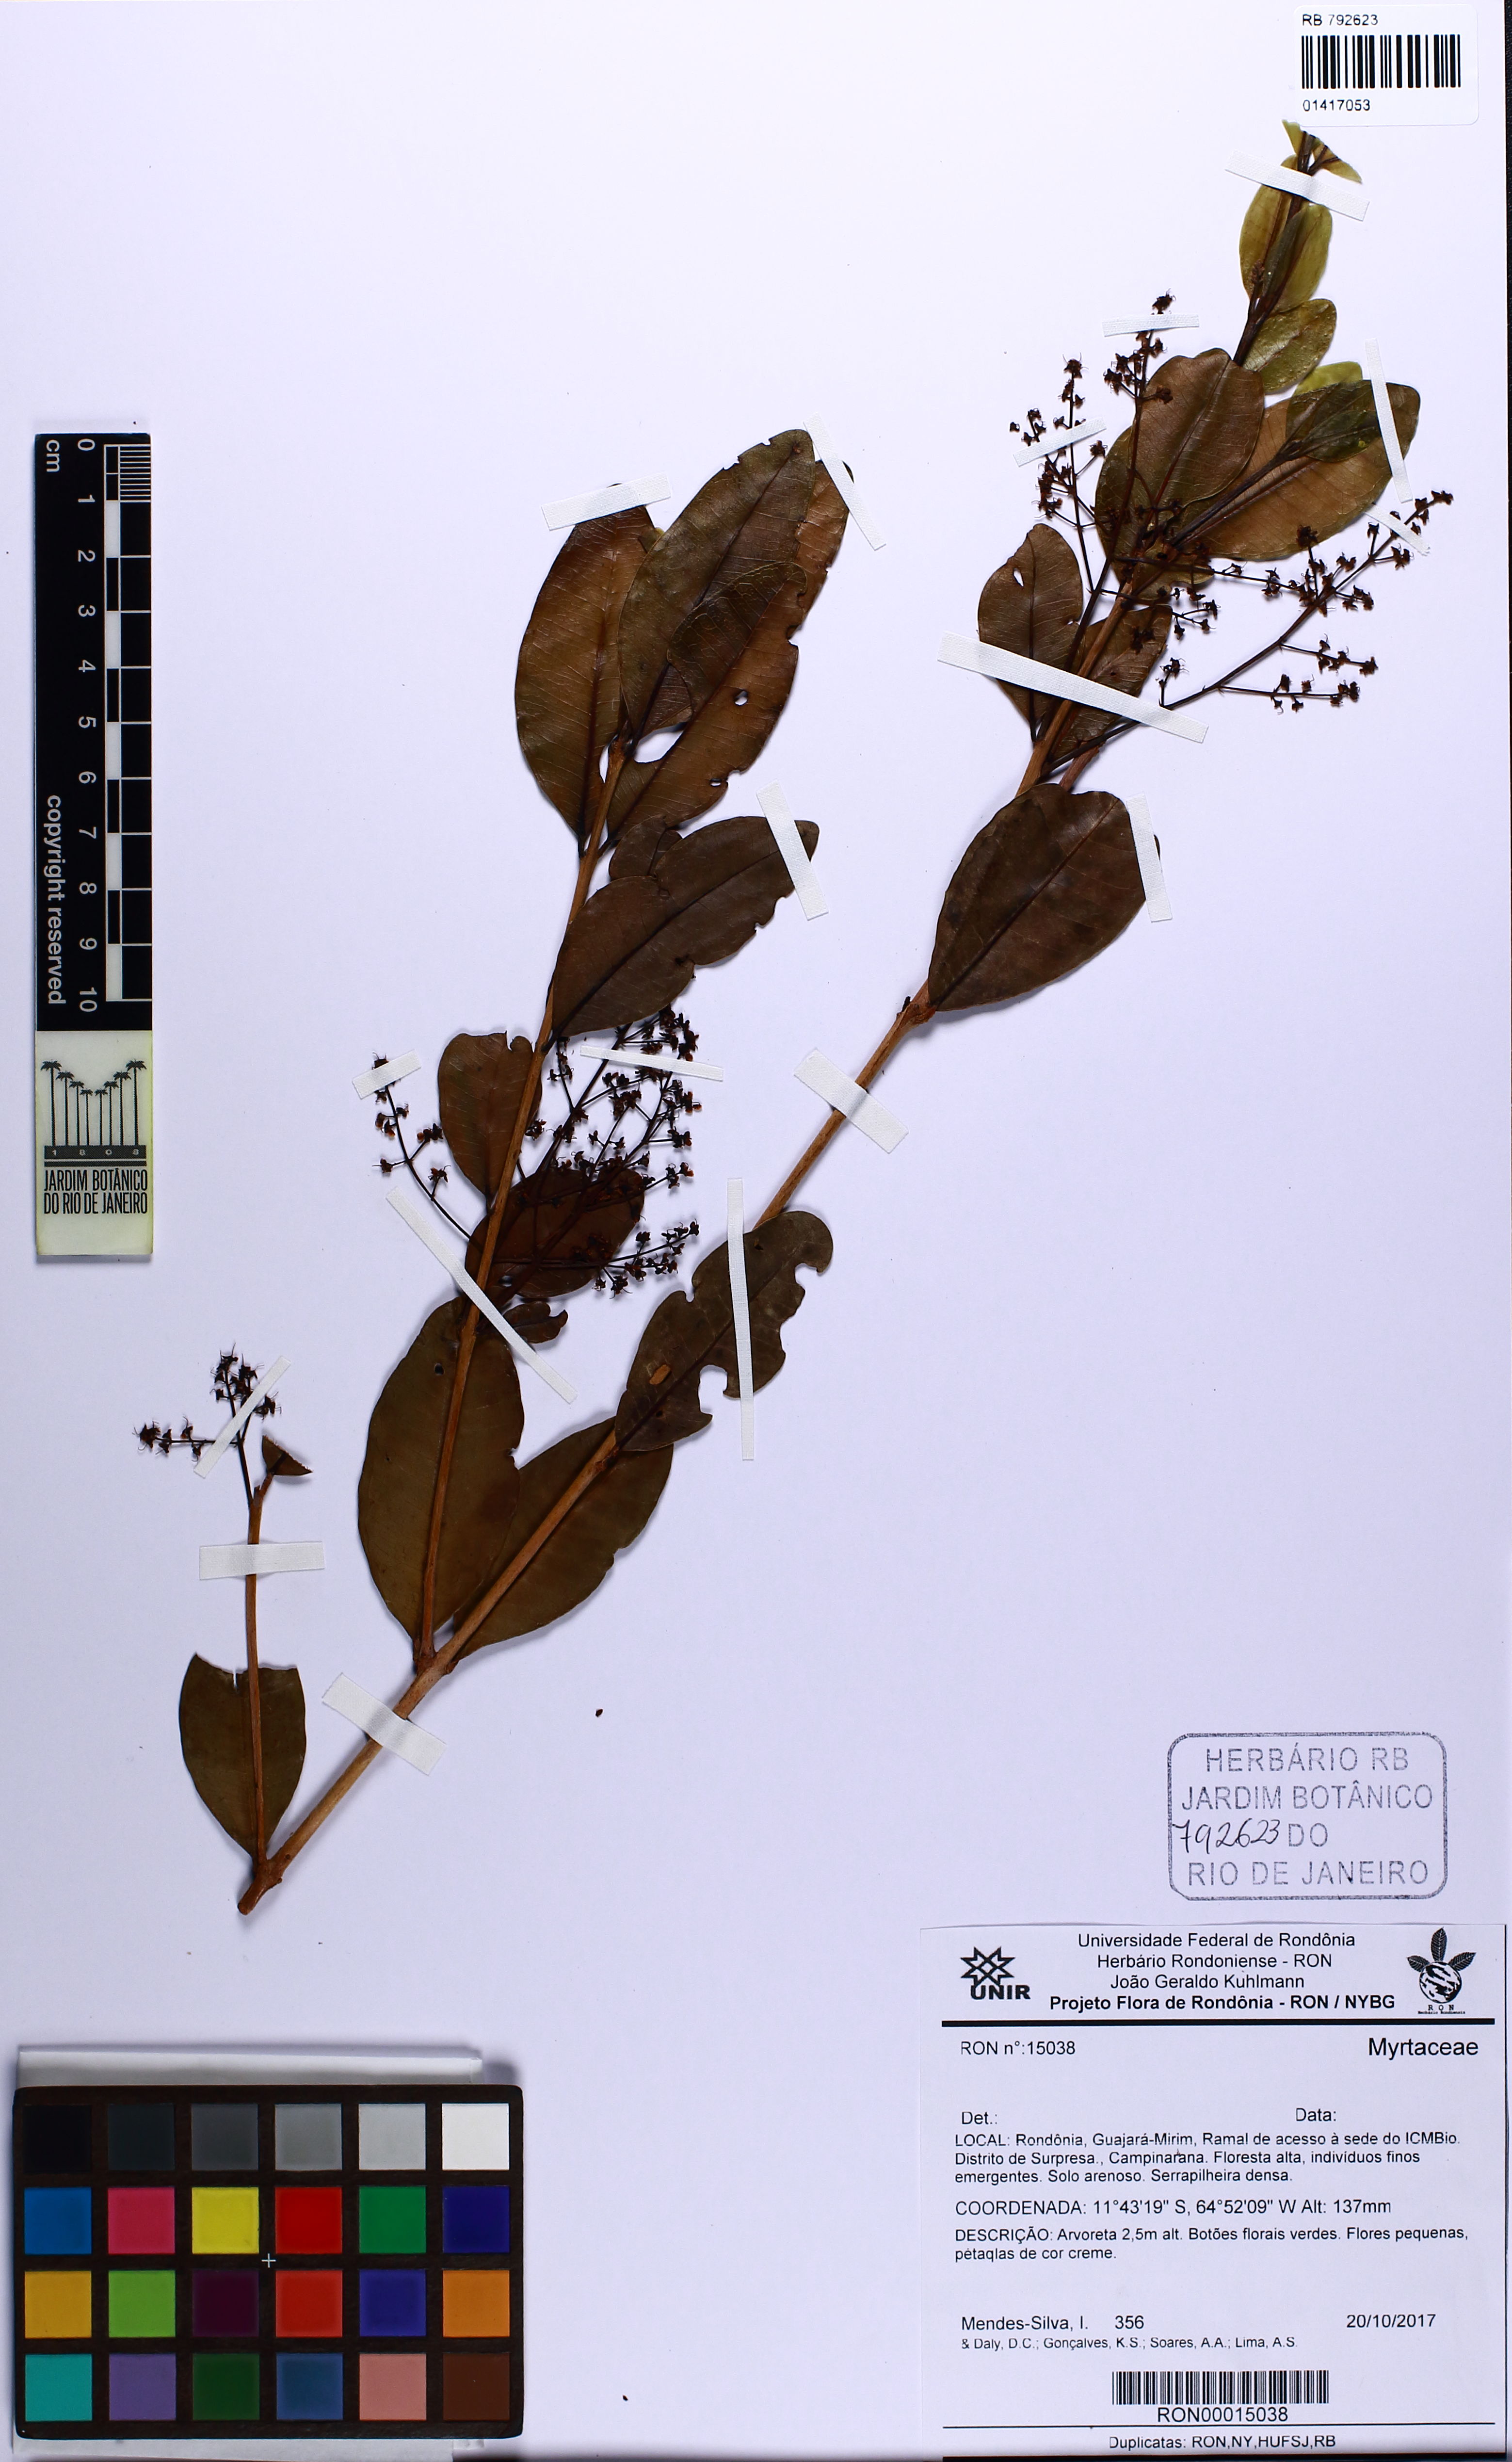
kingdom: Plantae
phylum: Tracheophyta
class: Magnoliopsida
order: Myrtales
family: Myrtaceae
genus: Myrcia
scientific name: Myrcia ehrenbergiana
